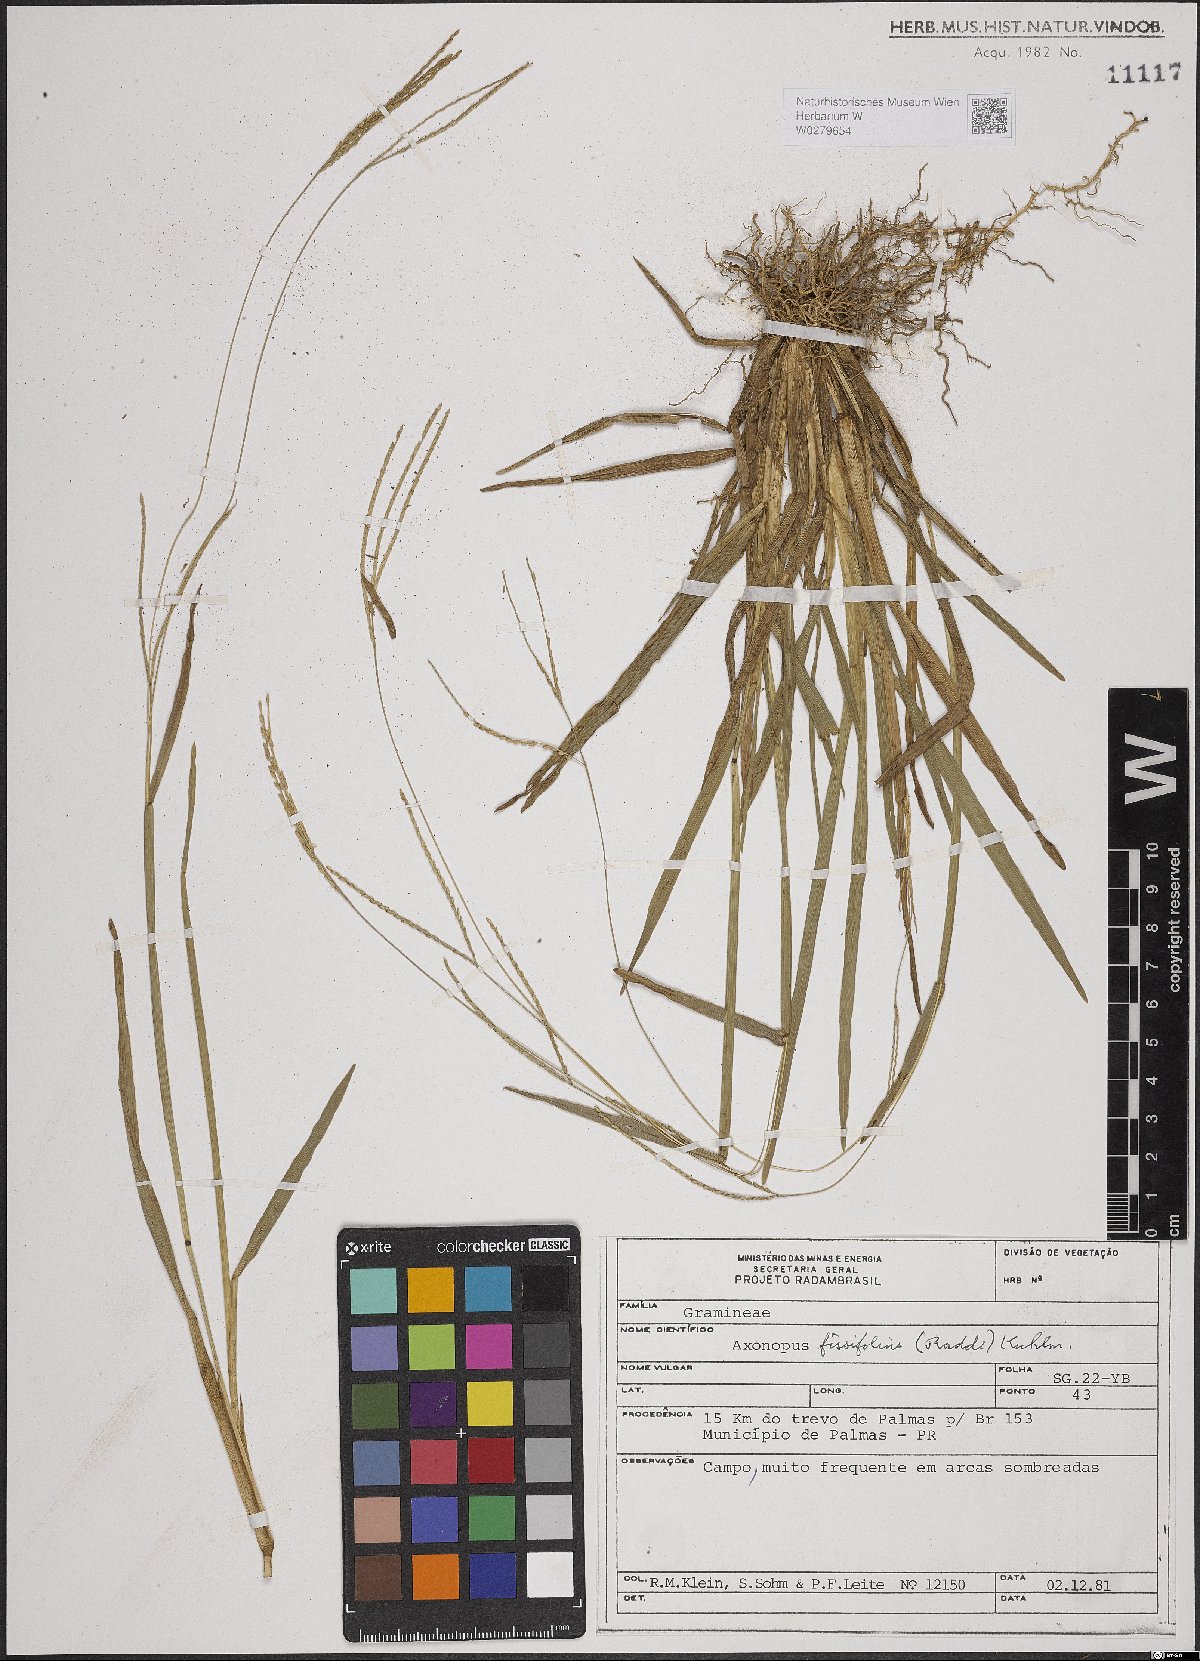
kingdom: Plantae
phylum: Tracheophyta
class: Liliopsida
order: Poales
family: Poaceae
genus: Axonopus
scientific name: Axonopus fissifolius
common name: Common carpetgrass
